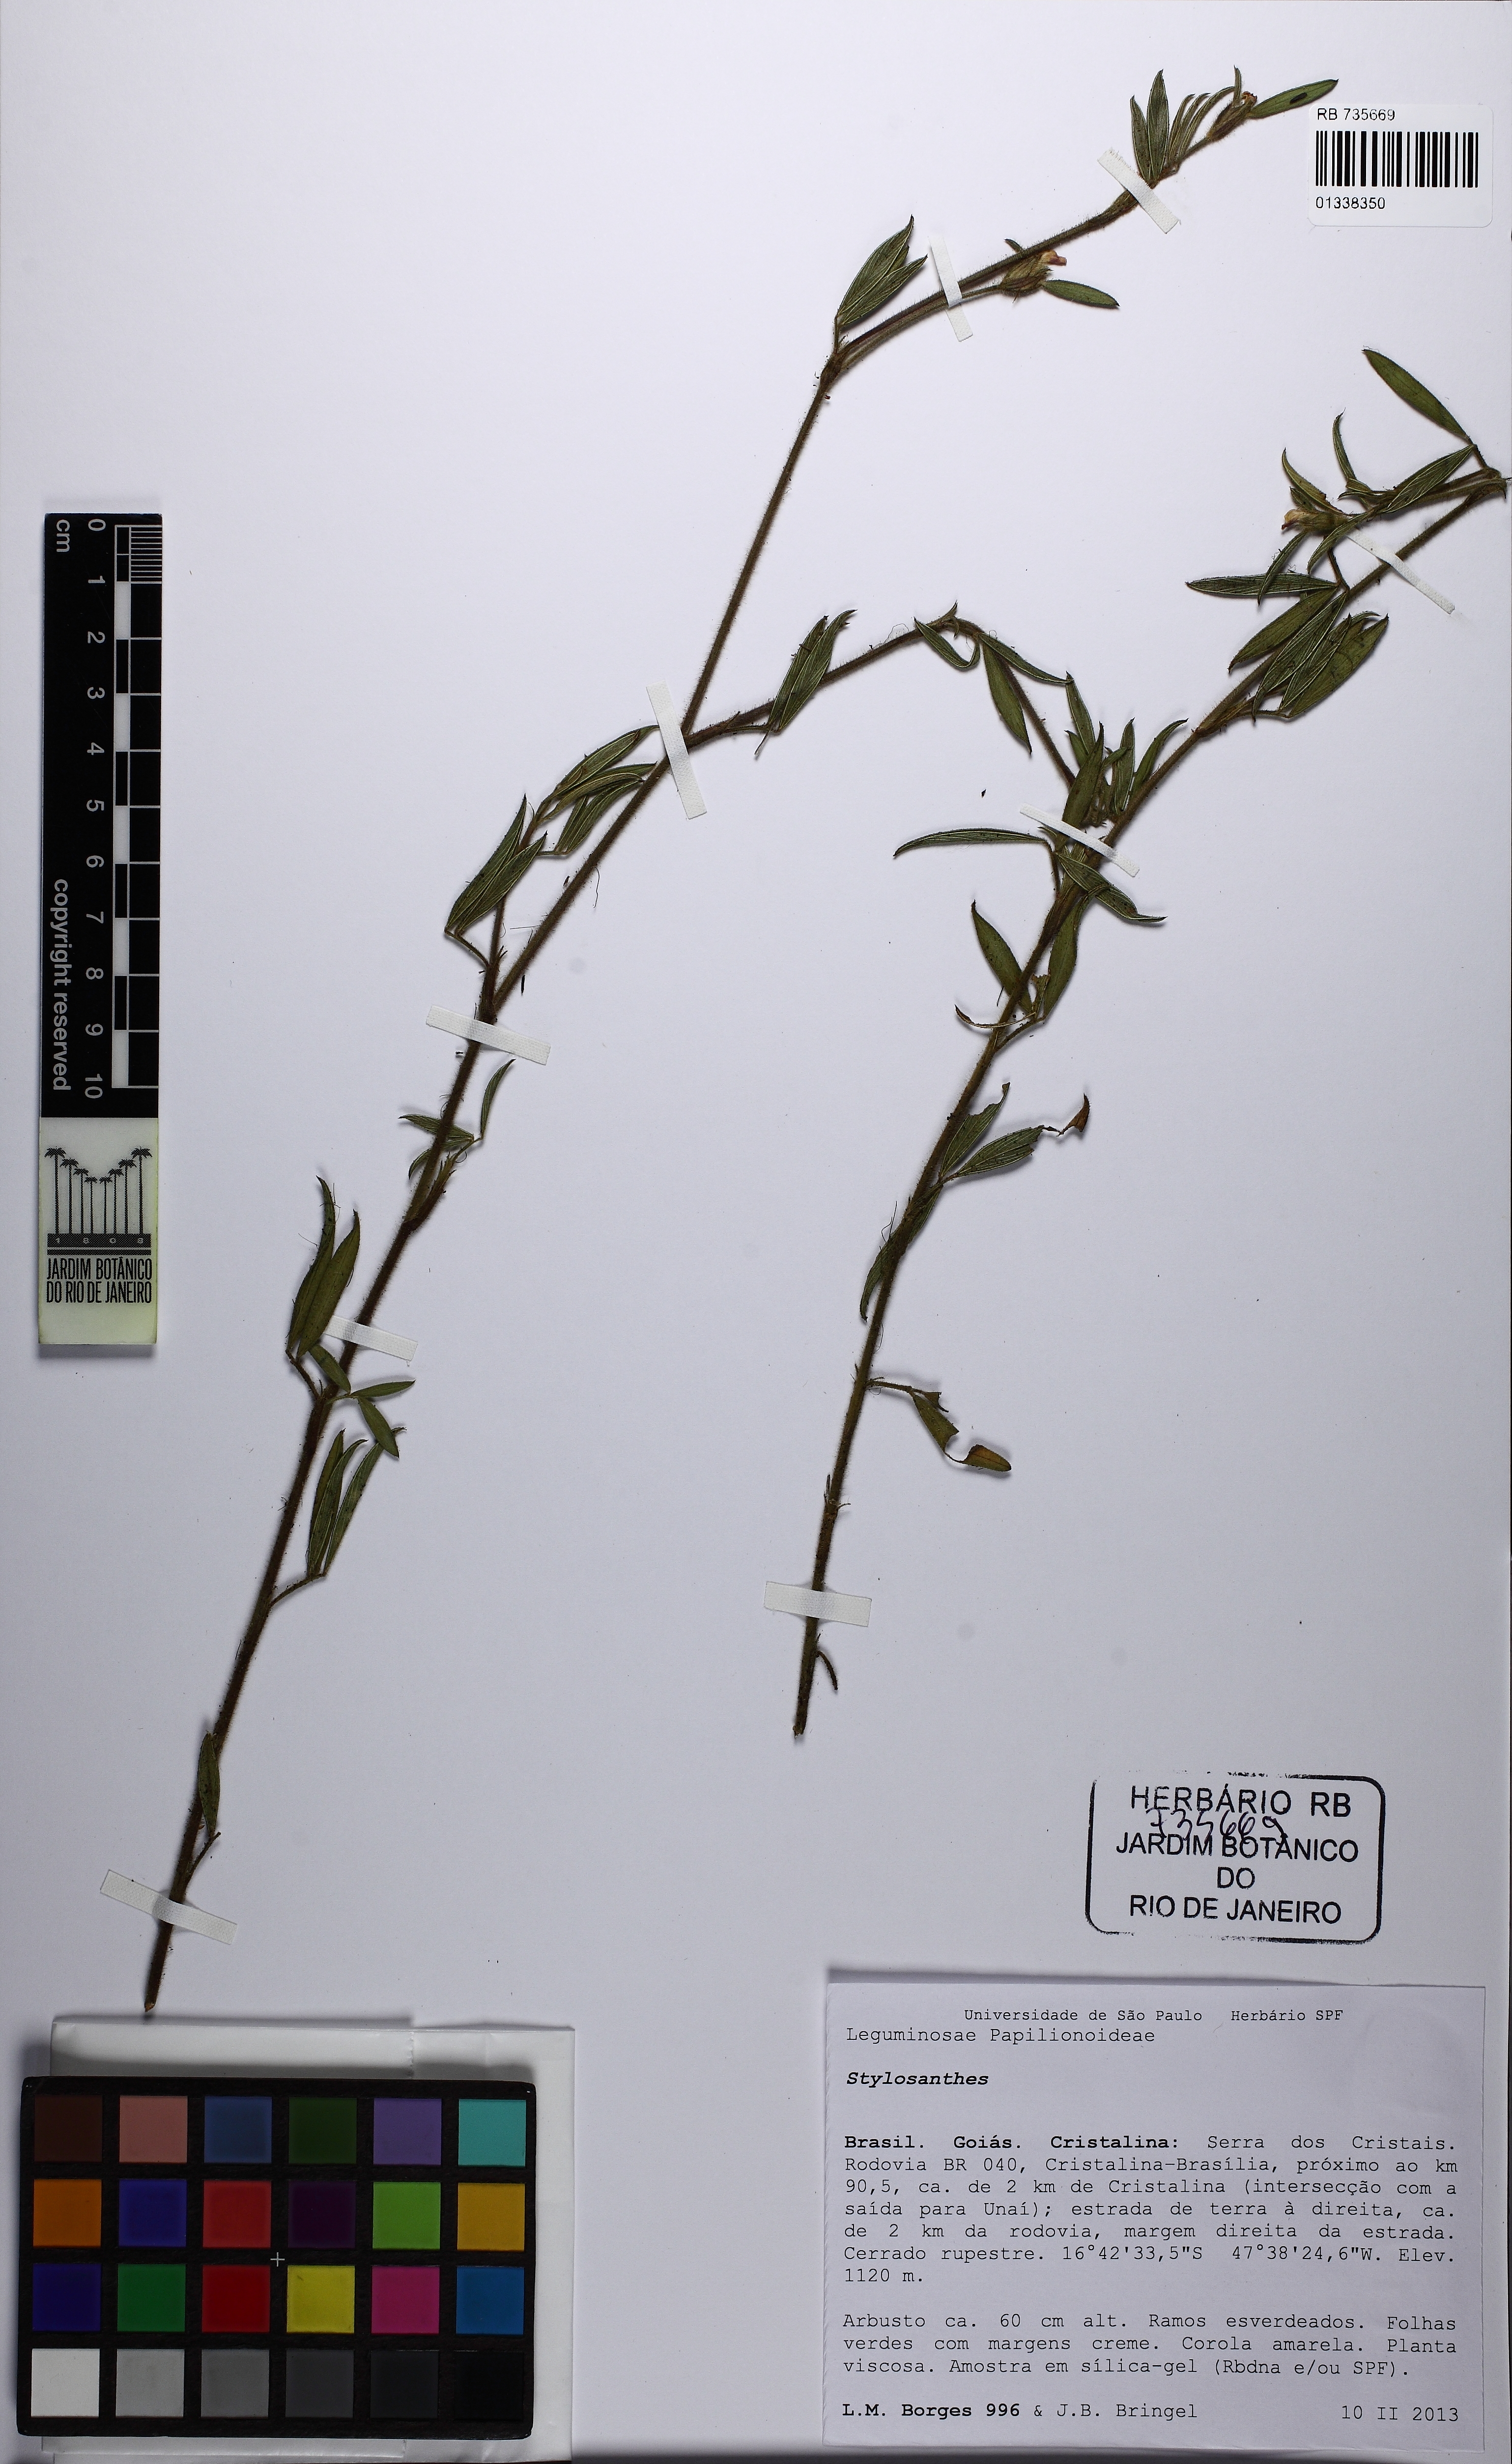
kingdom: Plantae
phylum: Tracheophyta
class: Magnoliopsida
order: Fabales
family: Fabaceae
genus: Stylosanthes
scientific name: Stylosanthes guianensis
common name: Pencil flower
